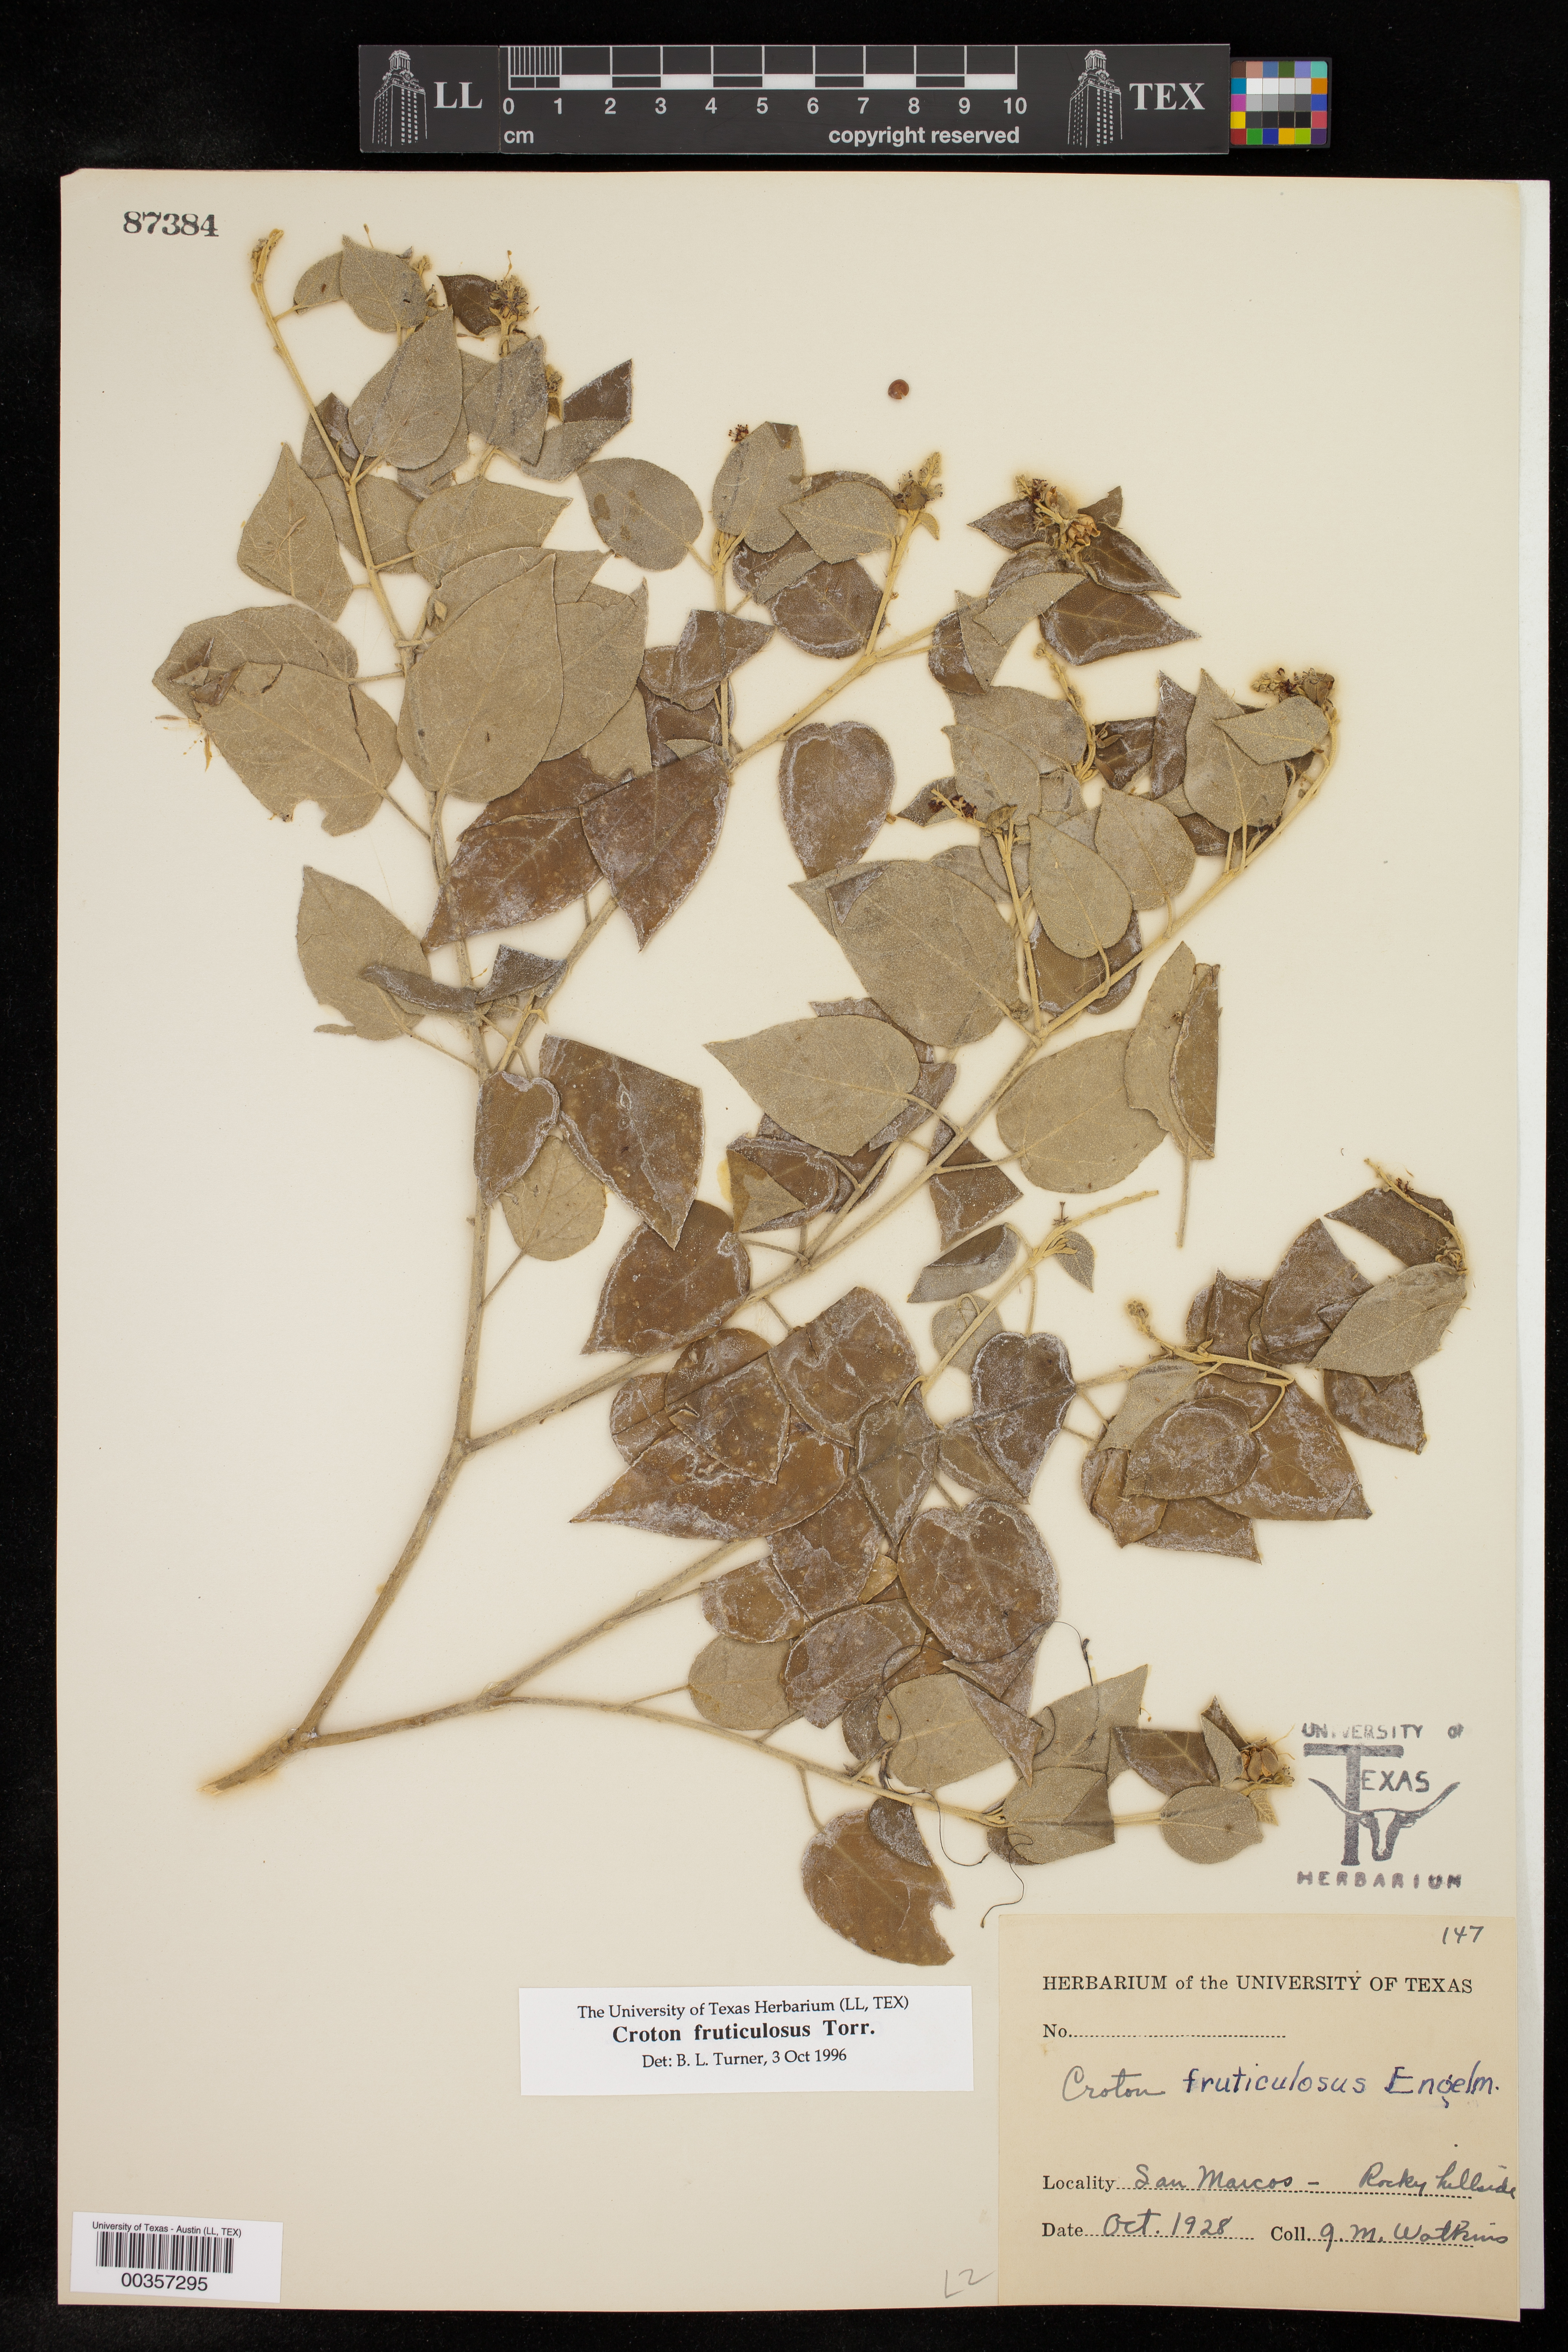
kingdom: Plantae
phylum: Tracheophyta
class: Magnoliopsida
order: Malpighiales
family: Euphorbiaceae
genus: Croton
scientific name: Croton fruticulosus
